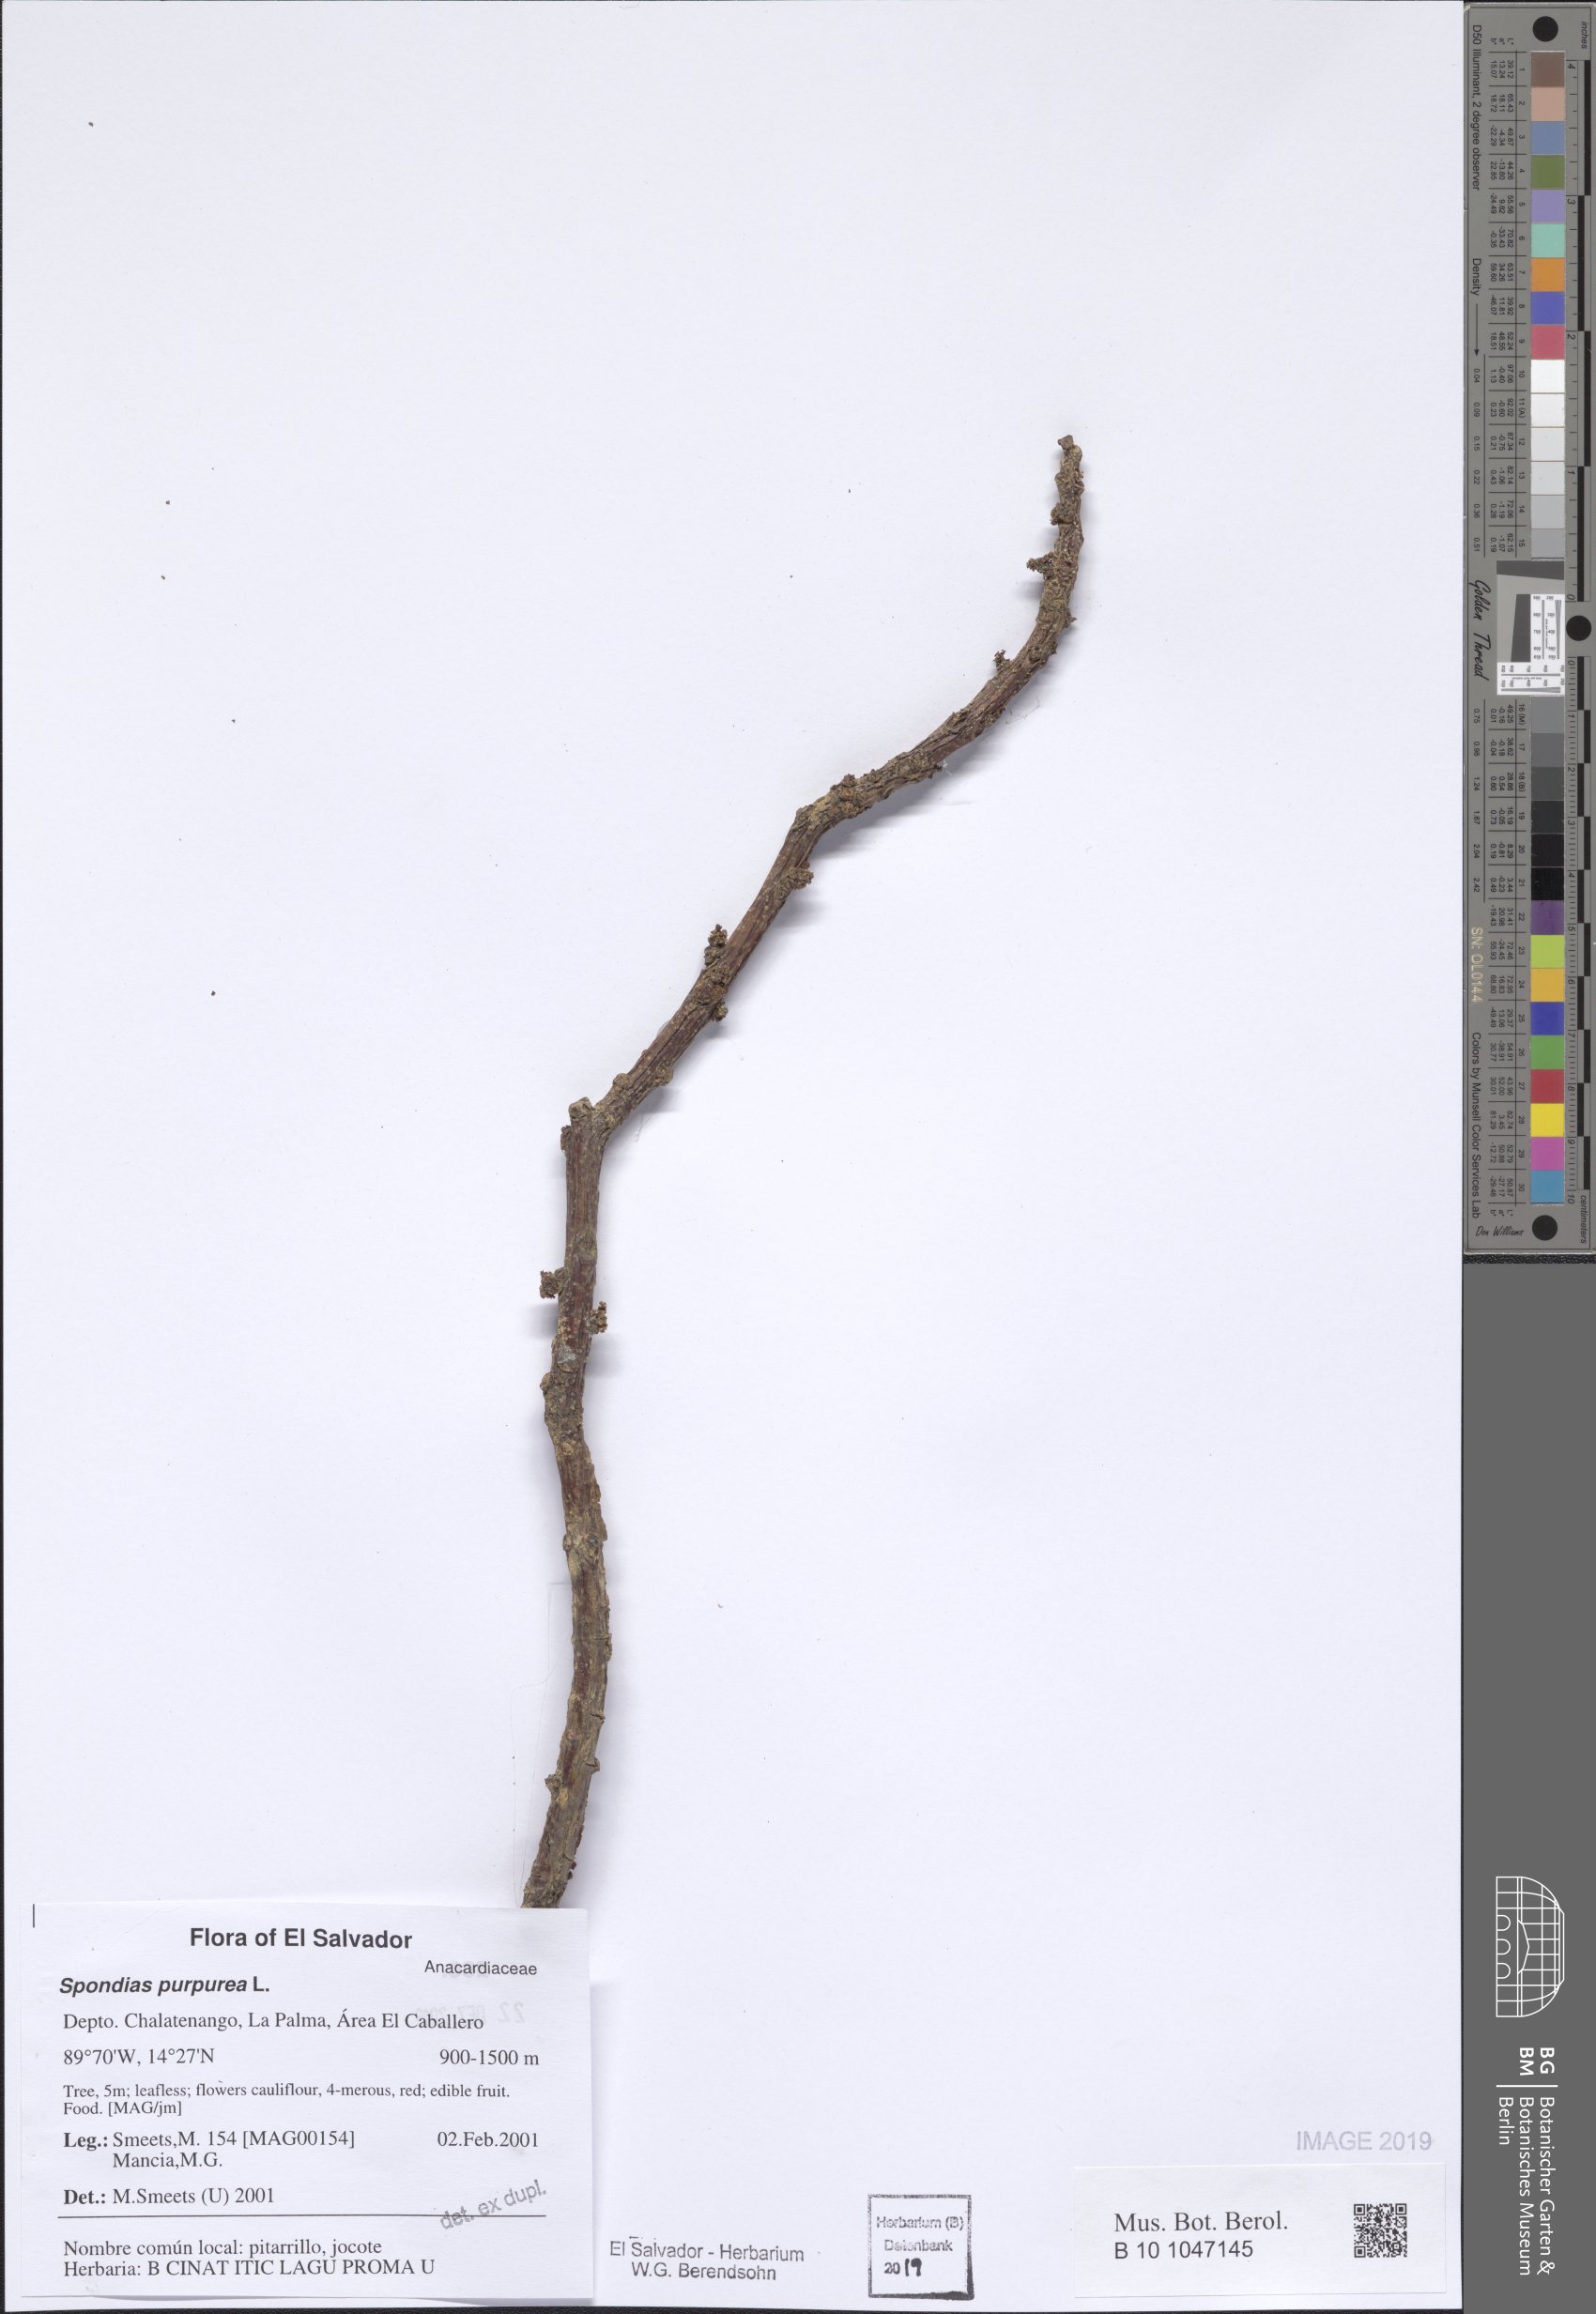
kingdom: Plantae
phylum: Tracheophyta
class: Magnoliopsida
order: Sapindales
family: Anacardiaceae
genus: Spondias
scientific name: Spondias purpurea
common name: Purple mombin
